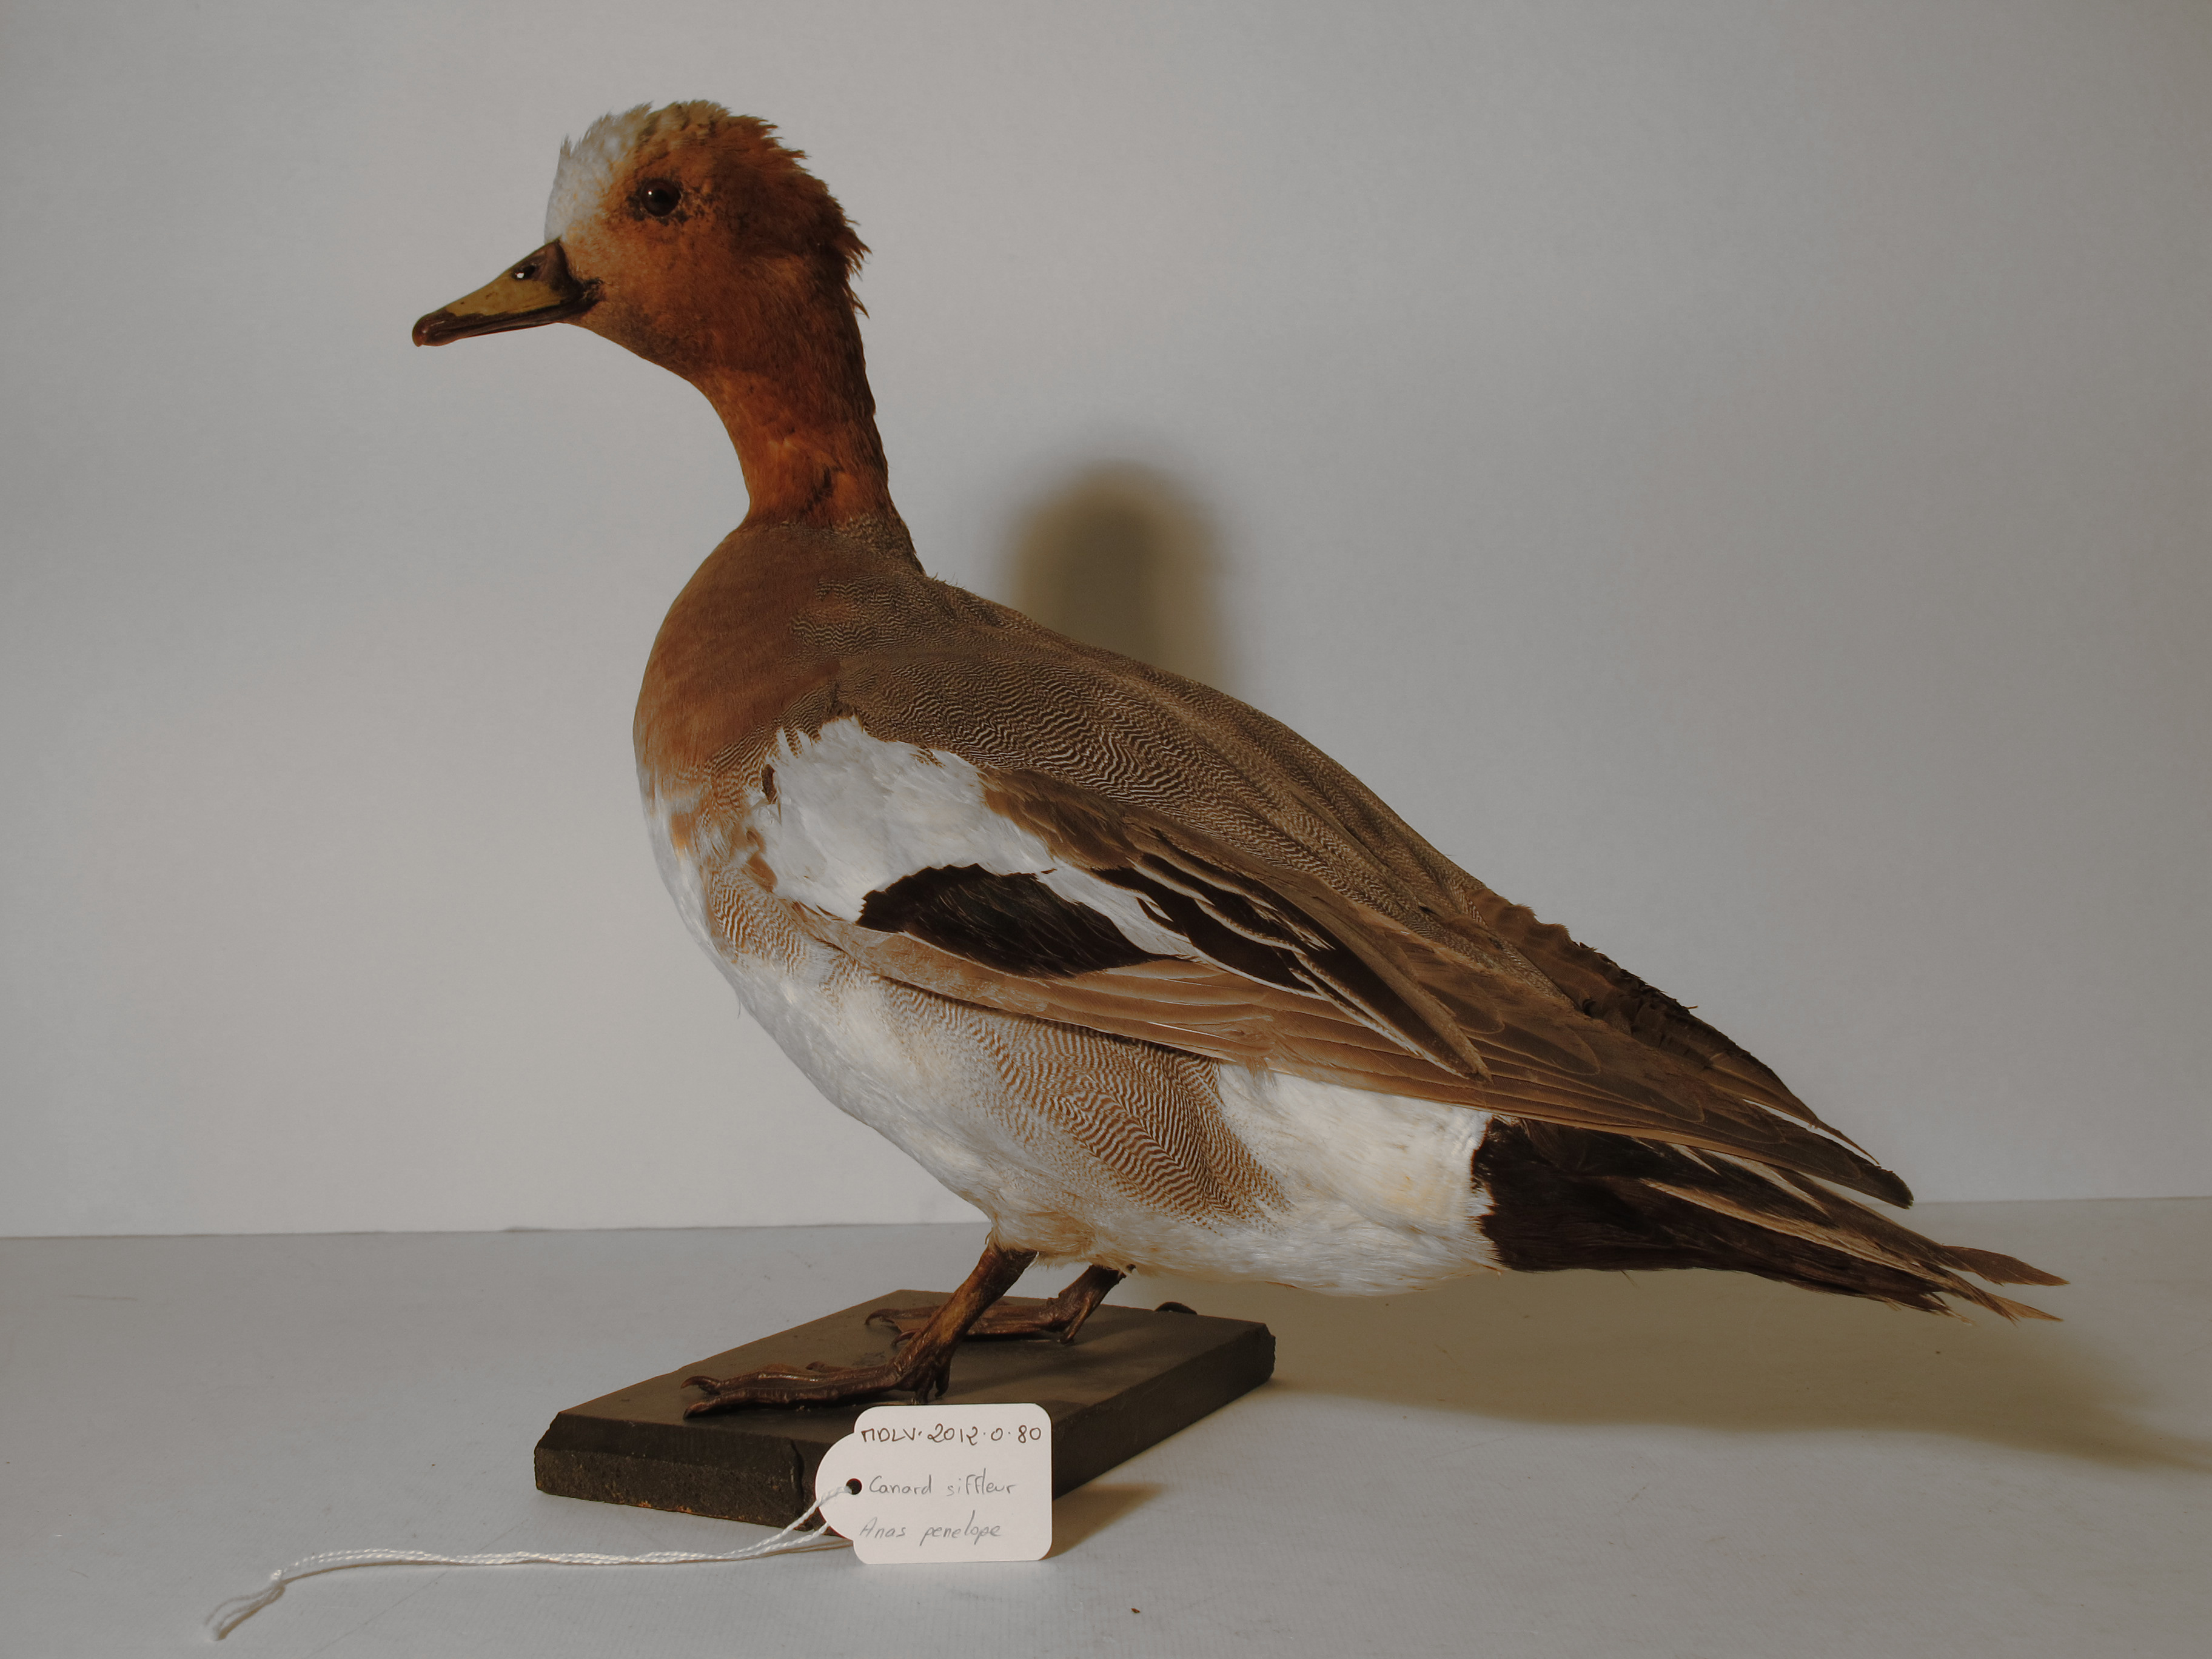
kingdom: Animalia
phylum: Chordata
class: Aves
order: Anseriformes
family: Anatidae
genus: Mareca
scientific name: Mareca penelope
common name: Eurasian Wigeon
